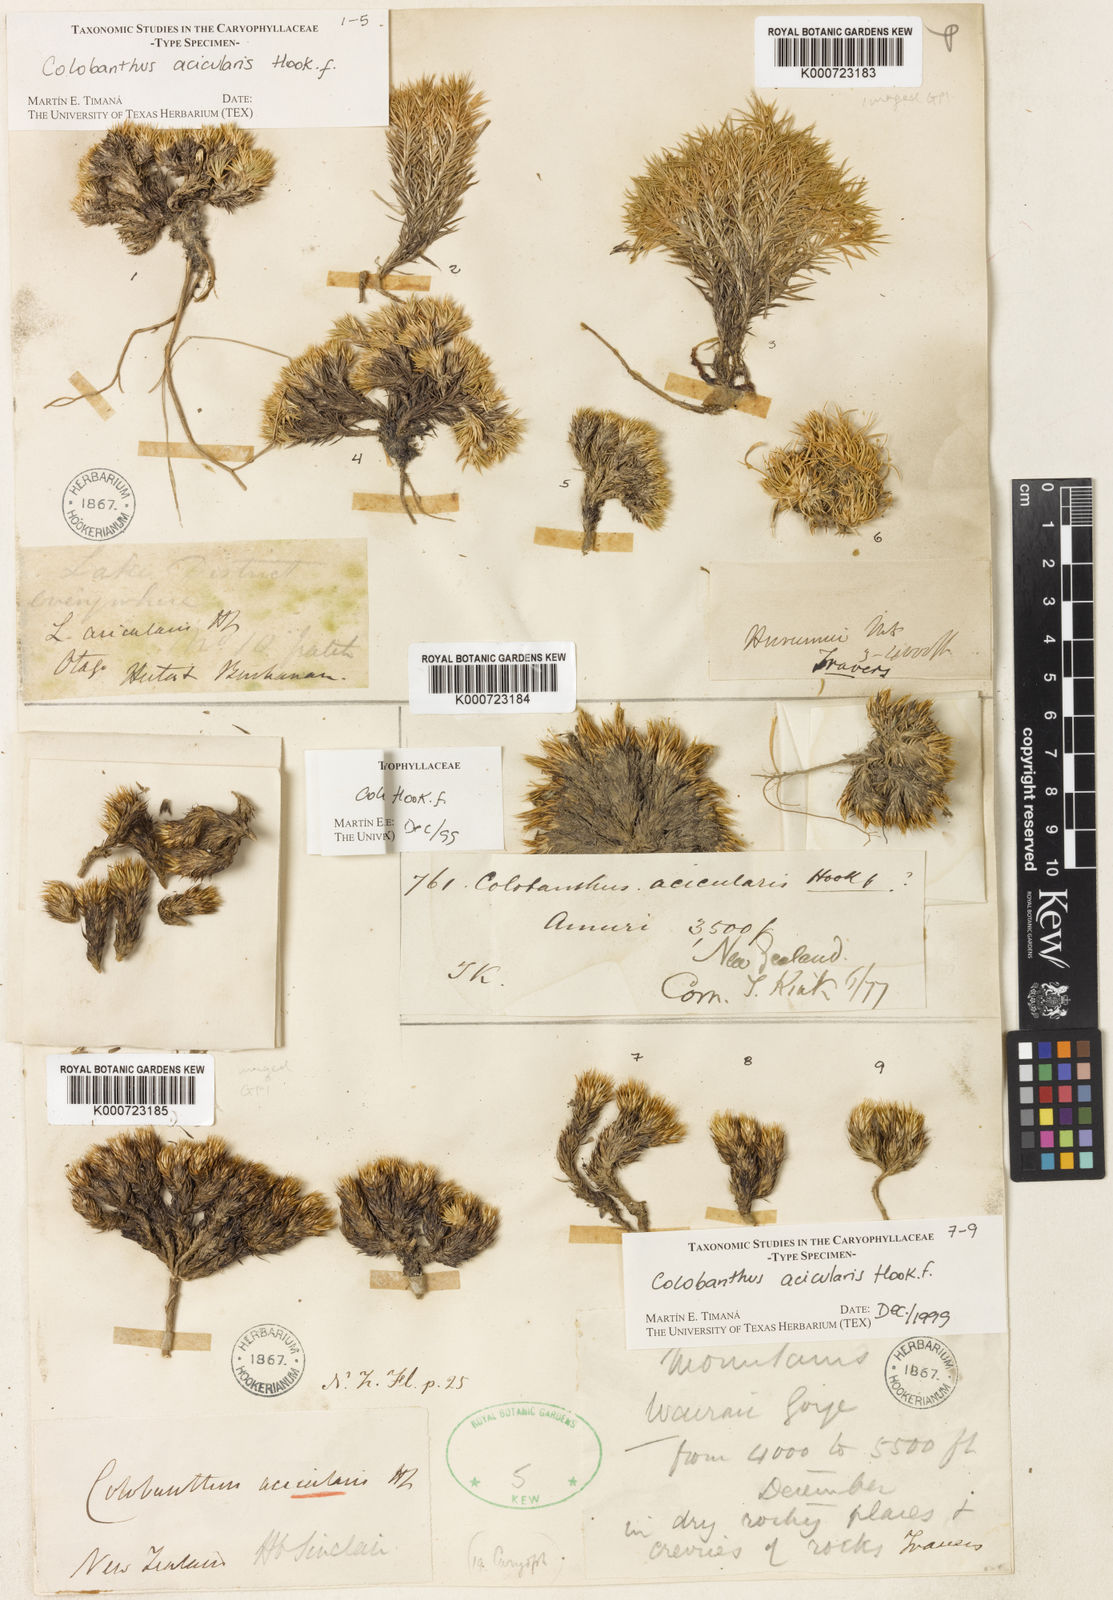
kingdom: Plantae
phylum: Tracheophyta
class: Magnoliopsida
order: Caryophyllales
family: Caryophyllaceae
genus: Colobanthus
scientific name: Colobanthus acicularis
